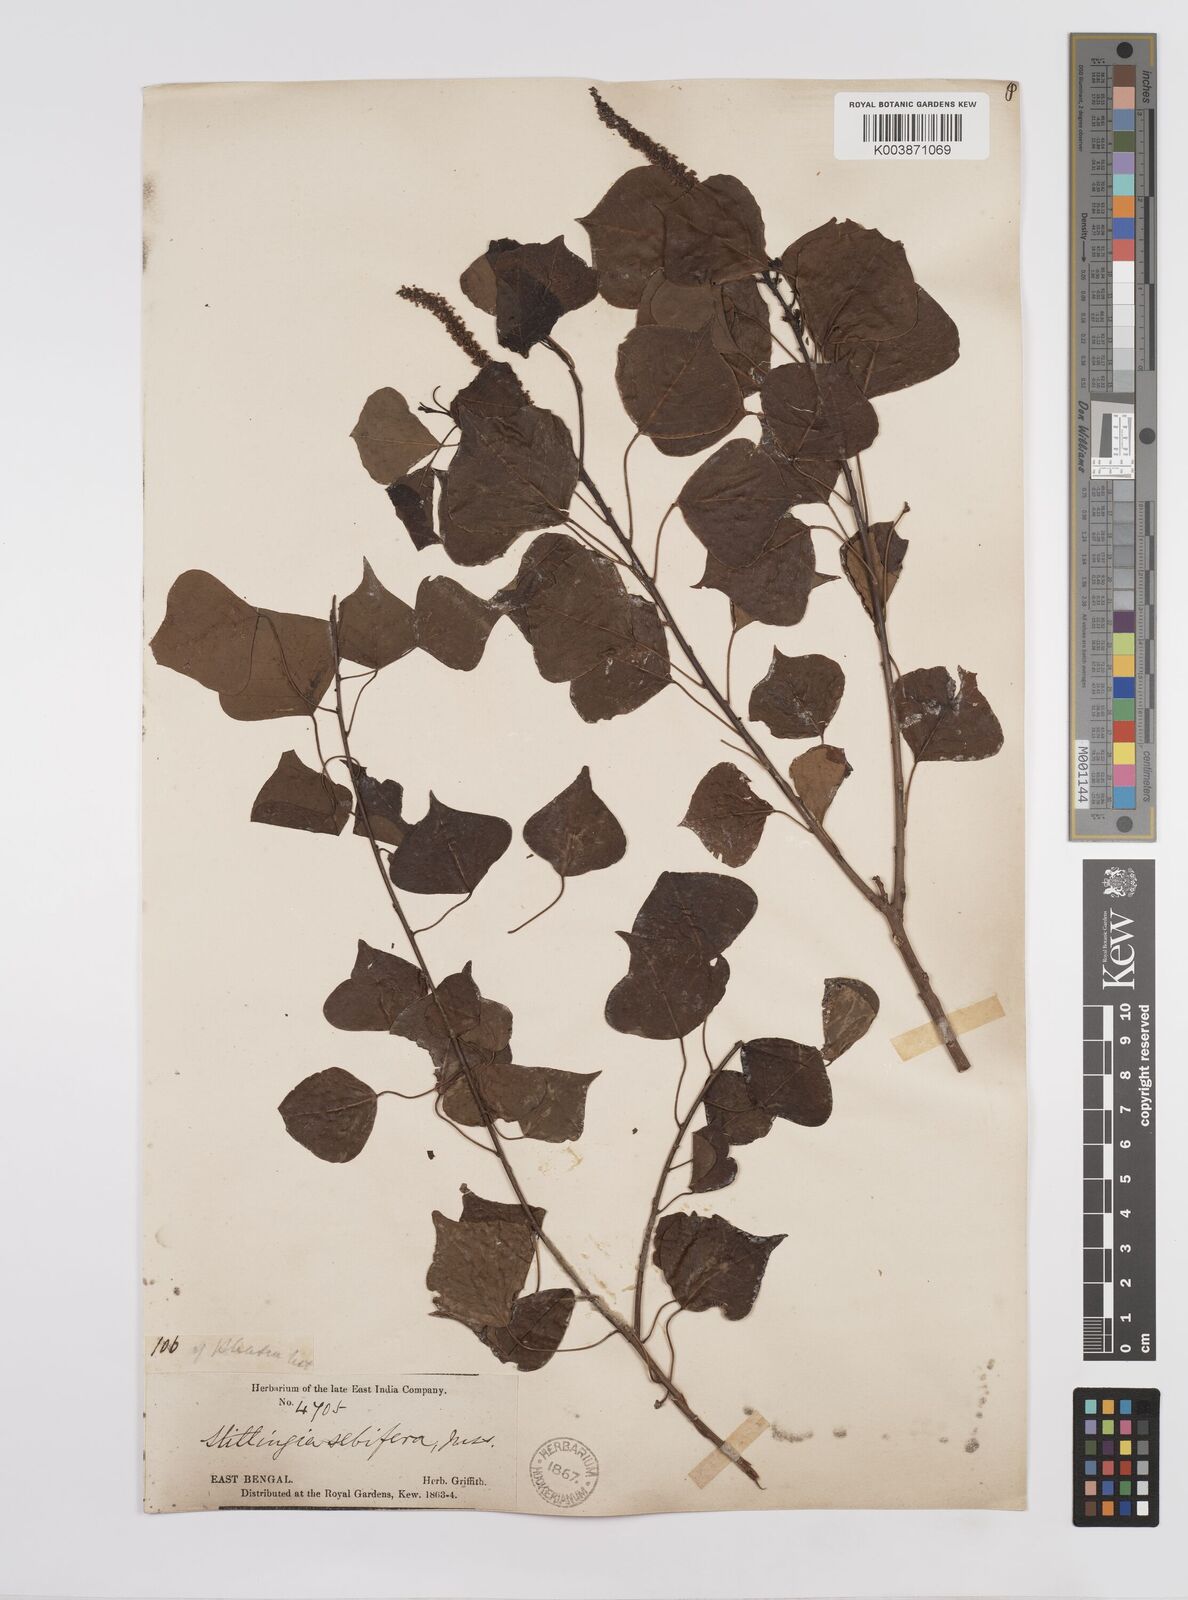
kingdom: Plantae
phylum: Tracheophyta
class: Magnoliopsida
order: Malpighiales
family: Euphorbiaceae
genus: Triadica
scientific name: Triadica sebifera
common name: Chinese tallow
